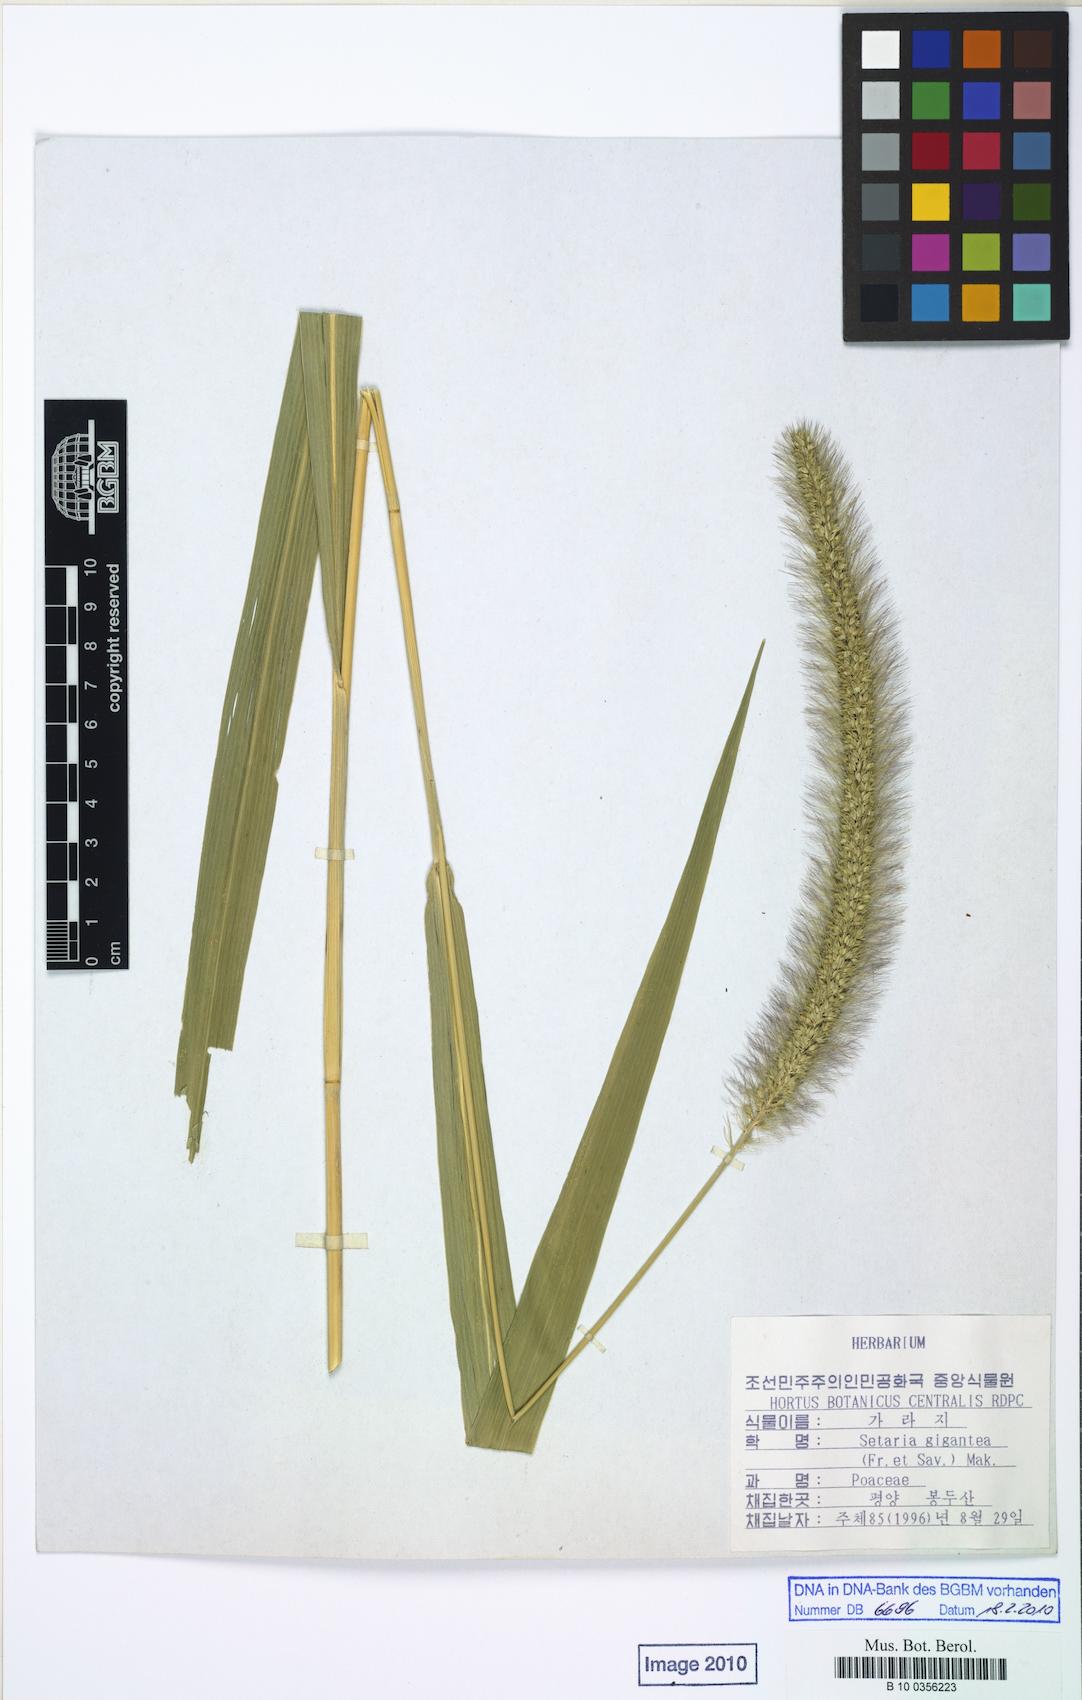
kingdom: Plantae
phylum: Tracheophyta
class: Liliopsida
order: Poales
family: Poaceae
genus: Setaria
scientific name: Setaria viridis
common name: Green bristlegrass
